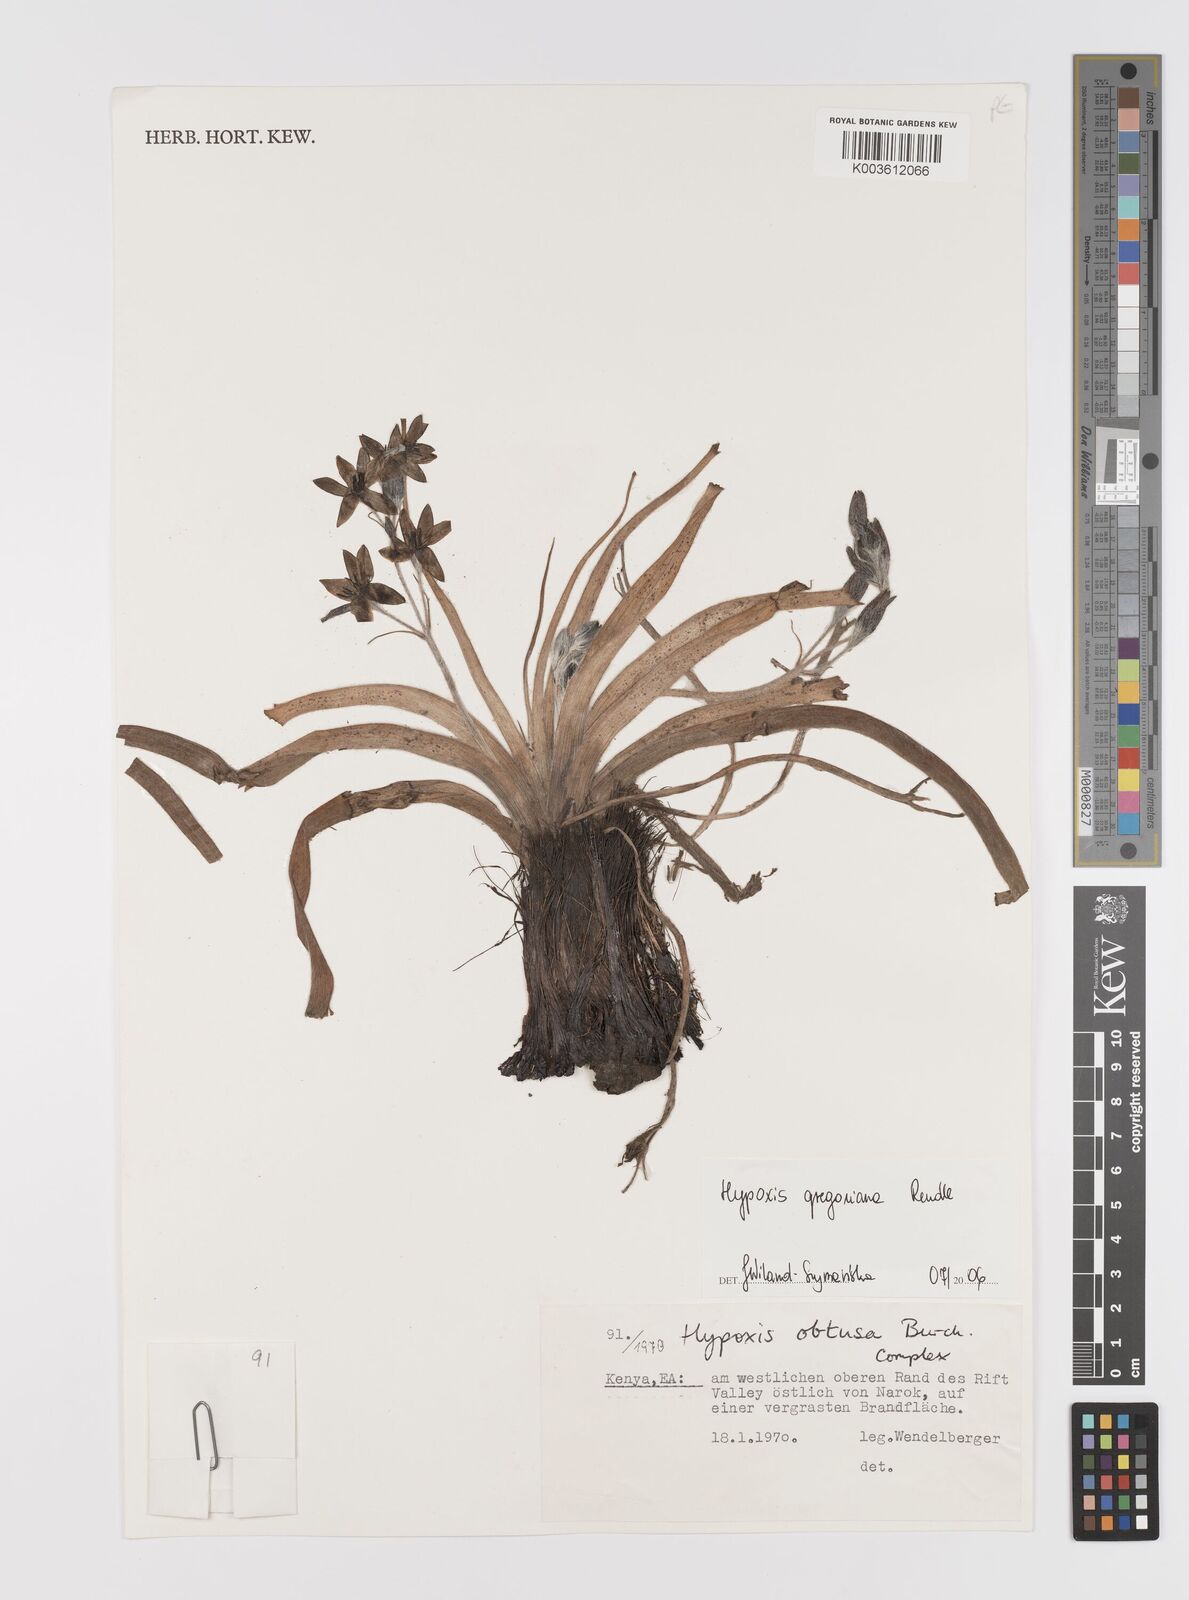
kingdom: Plantae
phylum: Tracheophyta
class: Liliopsida
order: Asparagales
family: Hypoxidaceae
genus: Hypoxis
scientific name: Hypoxis gregoriana
